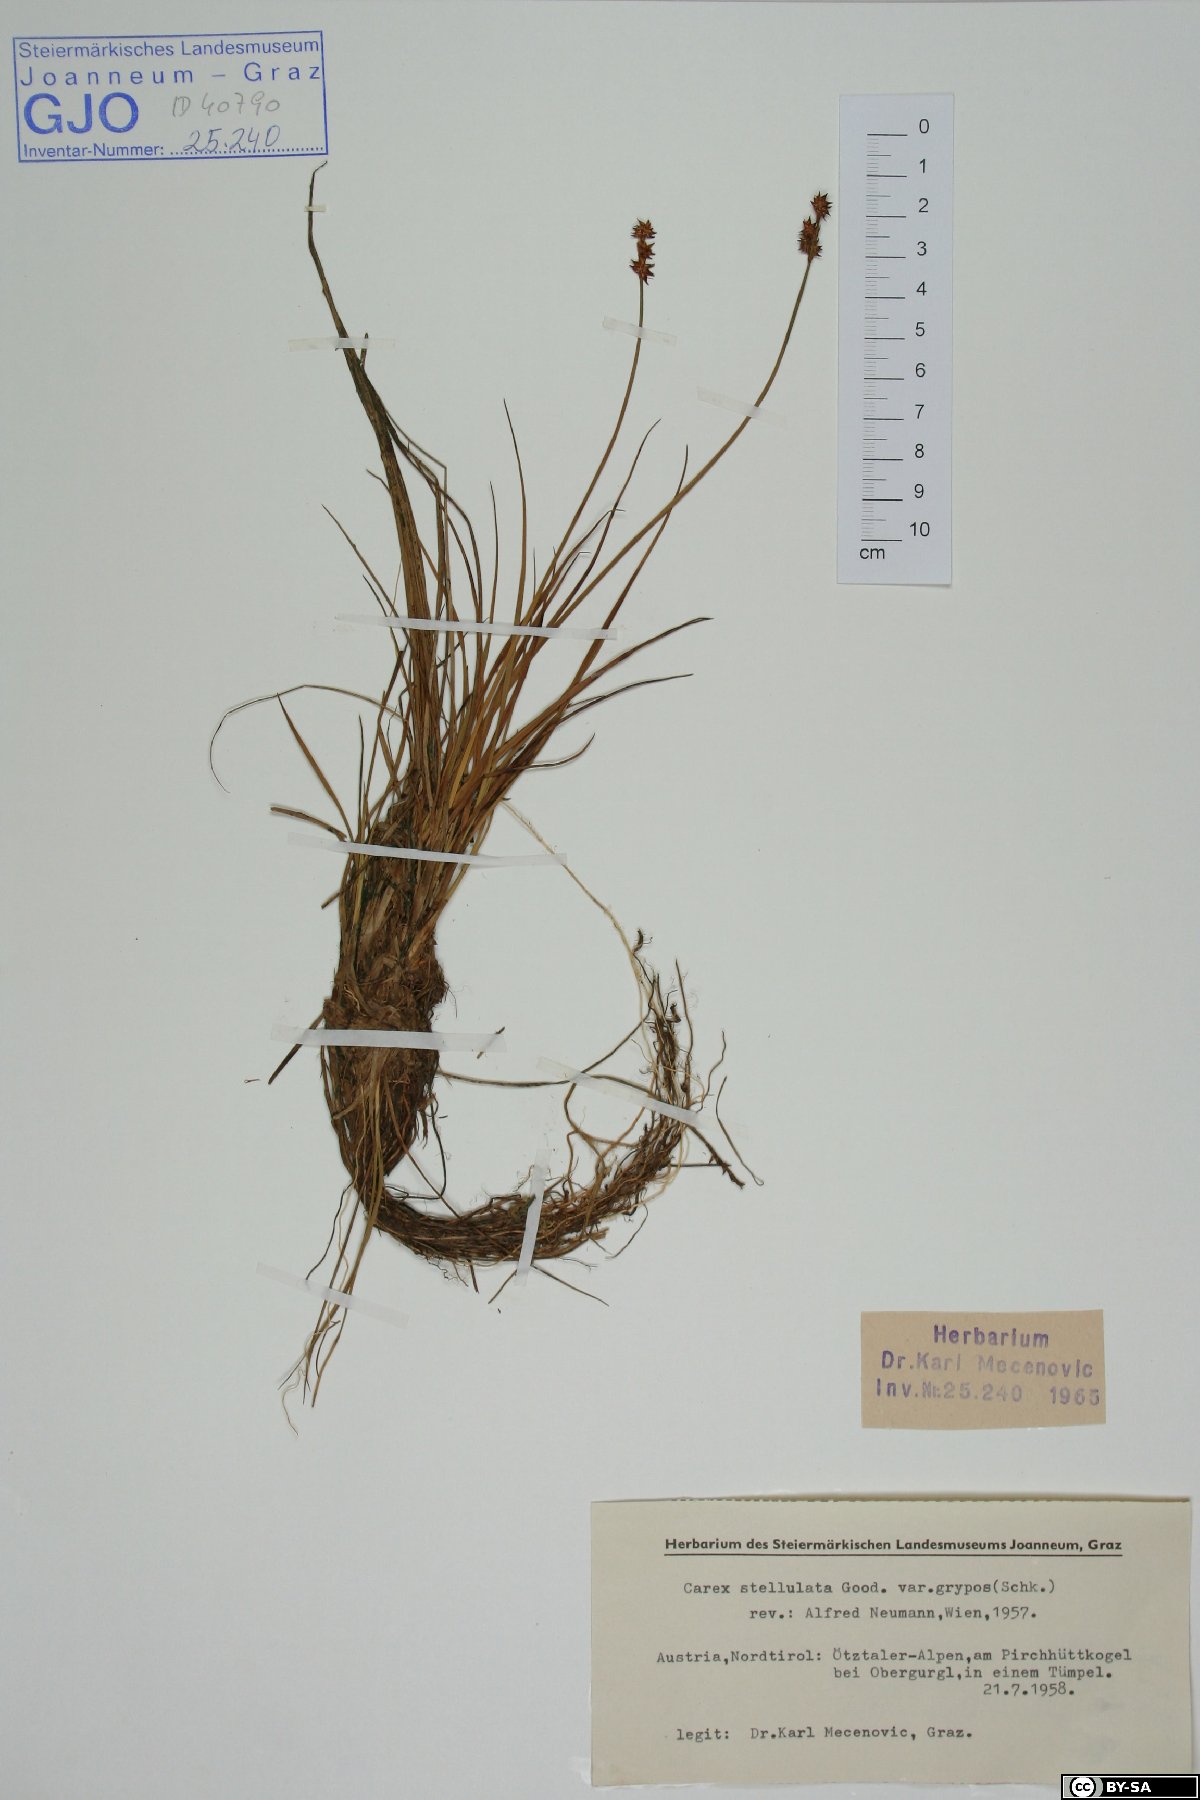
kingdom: Plantae
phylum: Tracheophyta
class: Liliopsida
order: Poales
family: Cyperaceae
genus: Carex
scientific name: Carex echinata
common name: Star sedge
